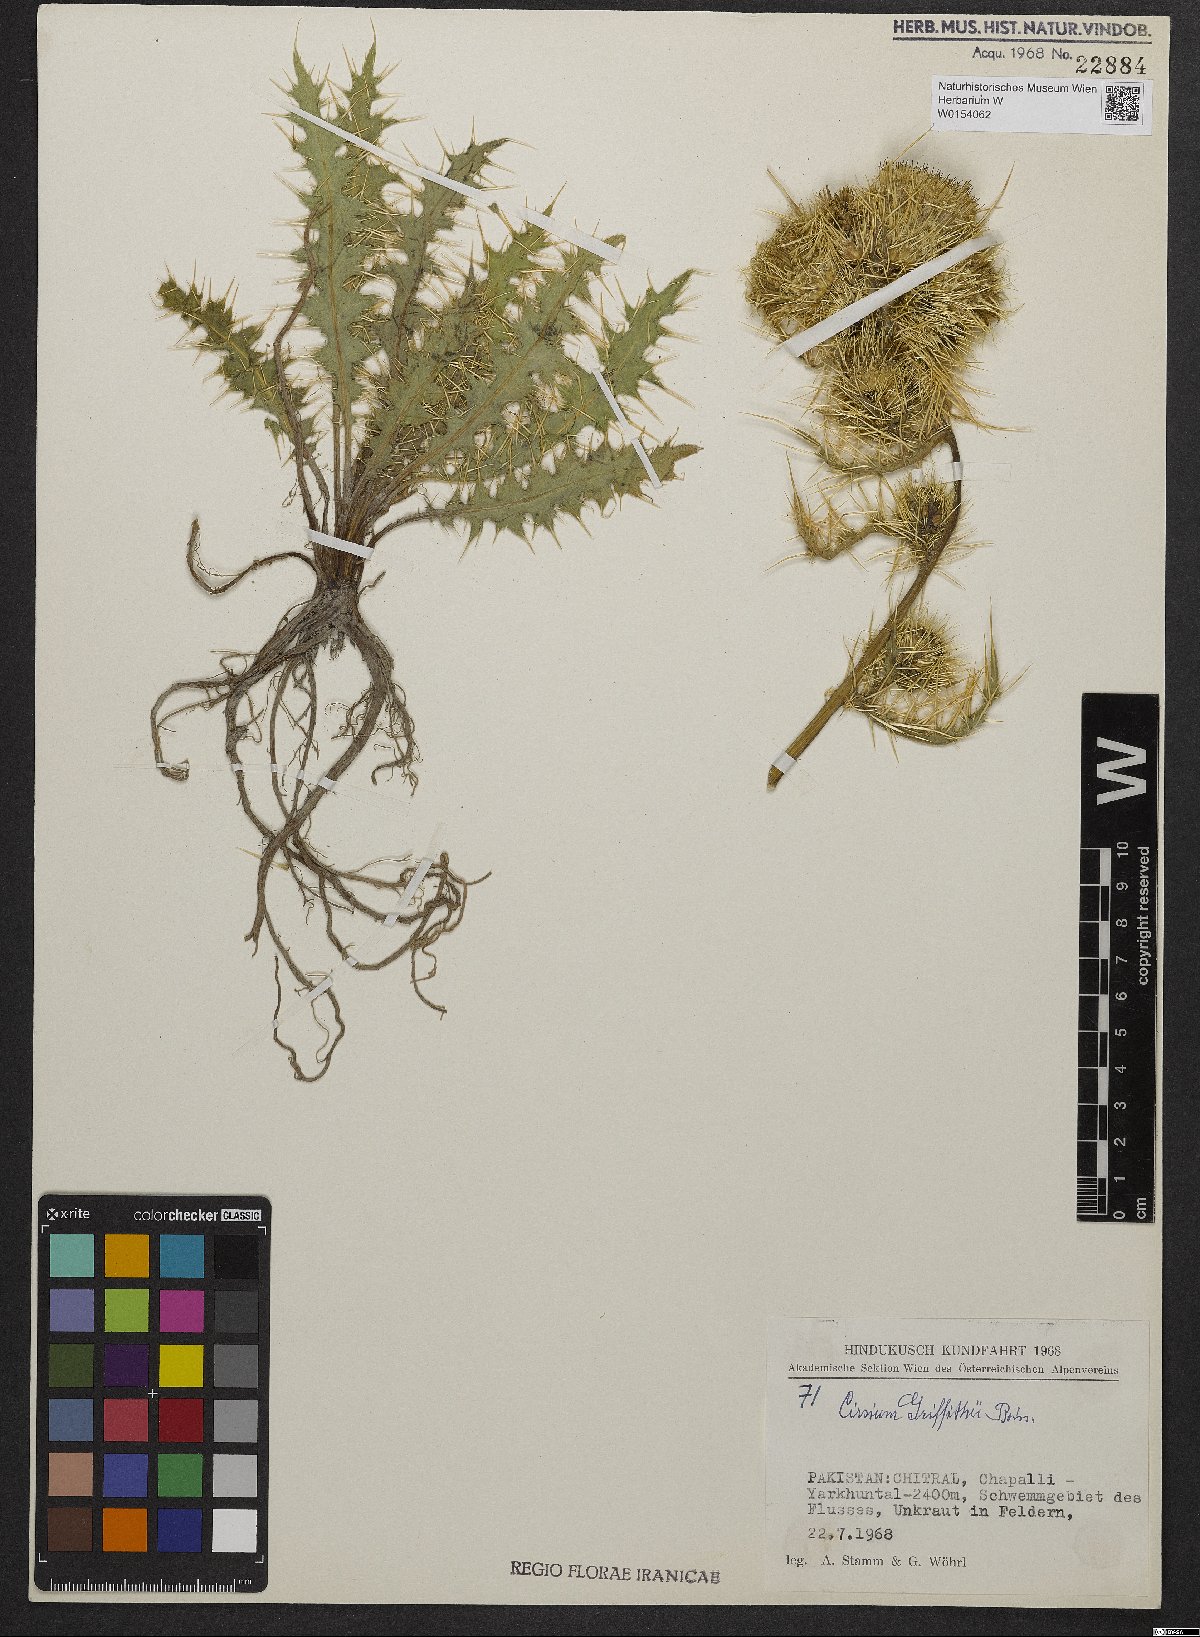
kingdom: Plantae
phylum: Tracheophyta
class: Magnoliopsida
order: Asterales
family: Asteraceae
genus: Lophiolepis
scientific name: Lophiolepis griffithii
